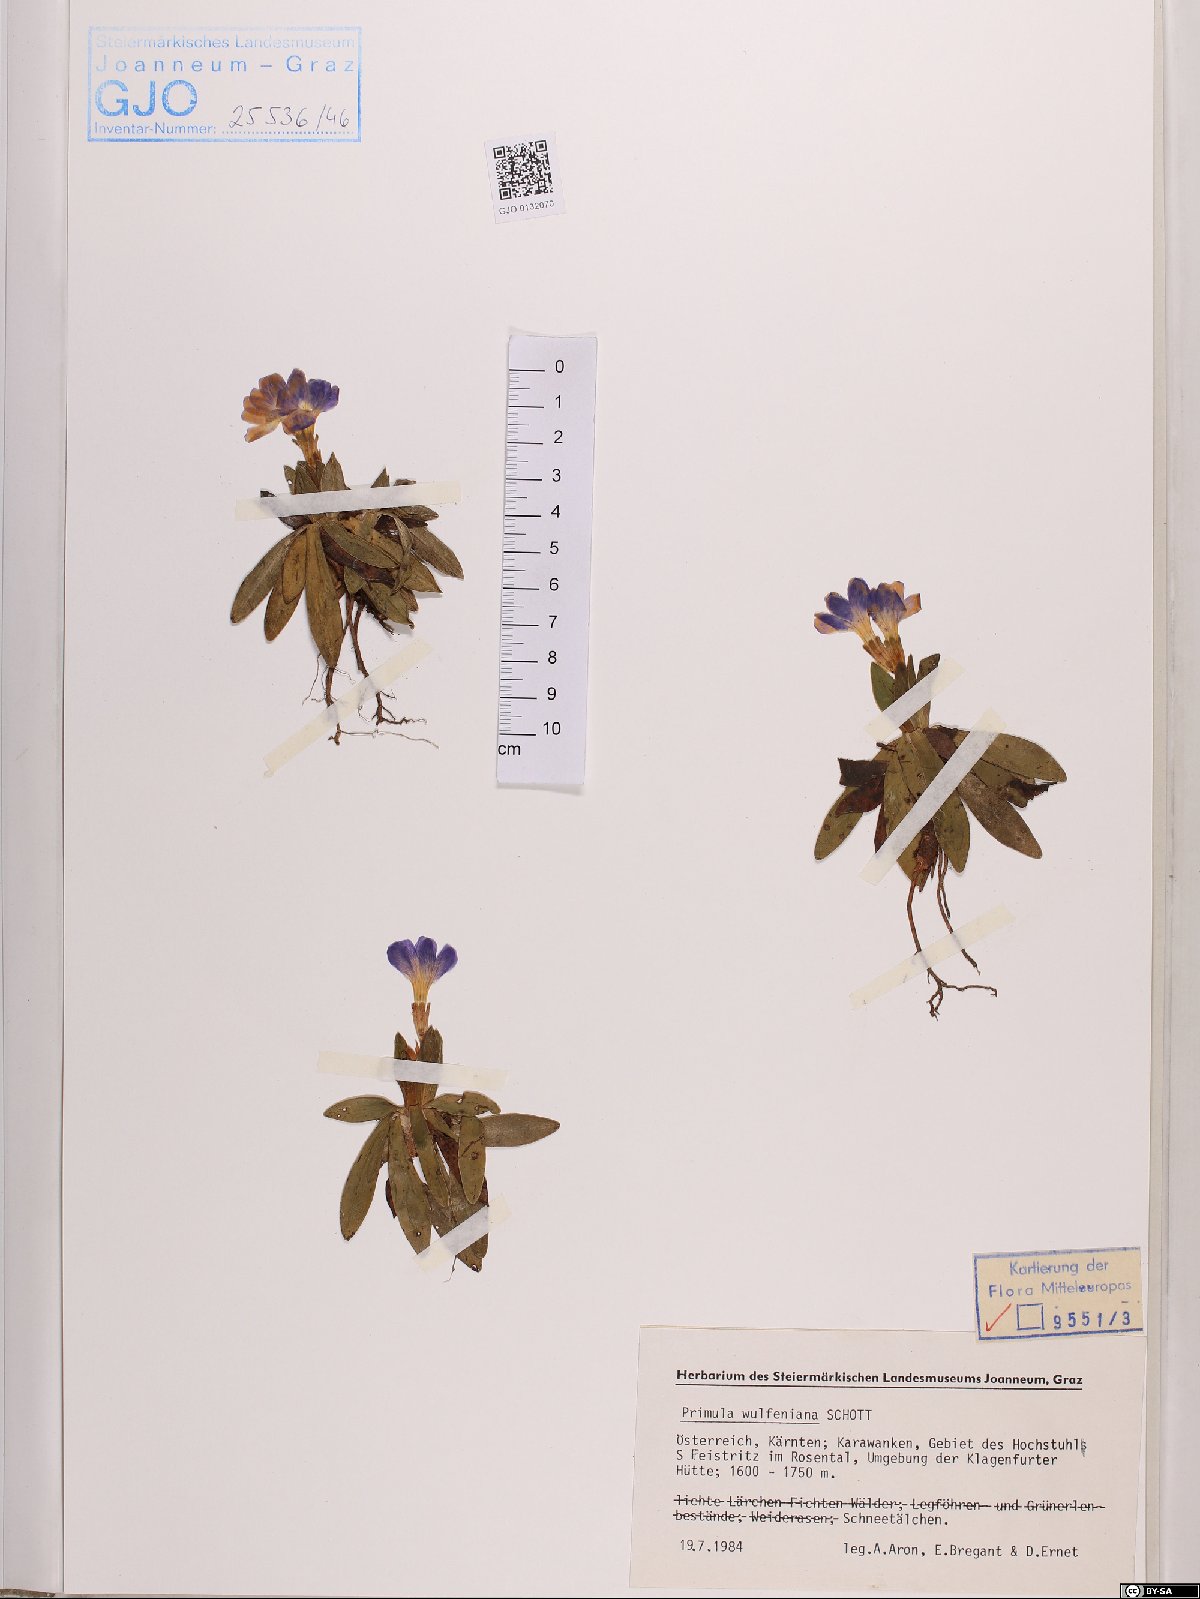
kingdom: Plantae
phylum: Tracheophyta
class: Magnoliopsida
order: Ericales
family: Primulaceae
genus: Primula
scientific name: Primula wulfeniana
